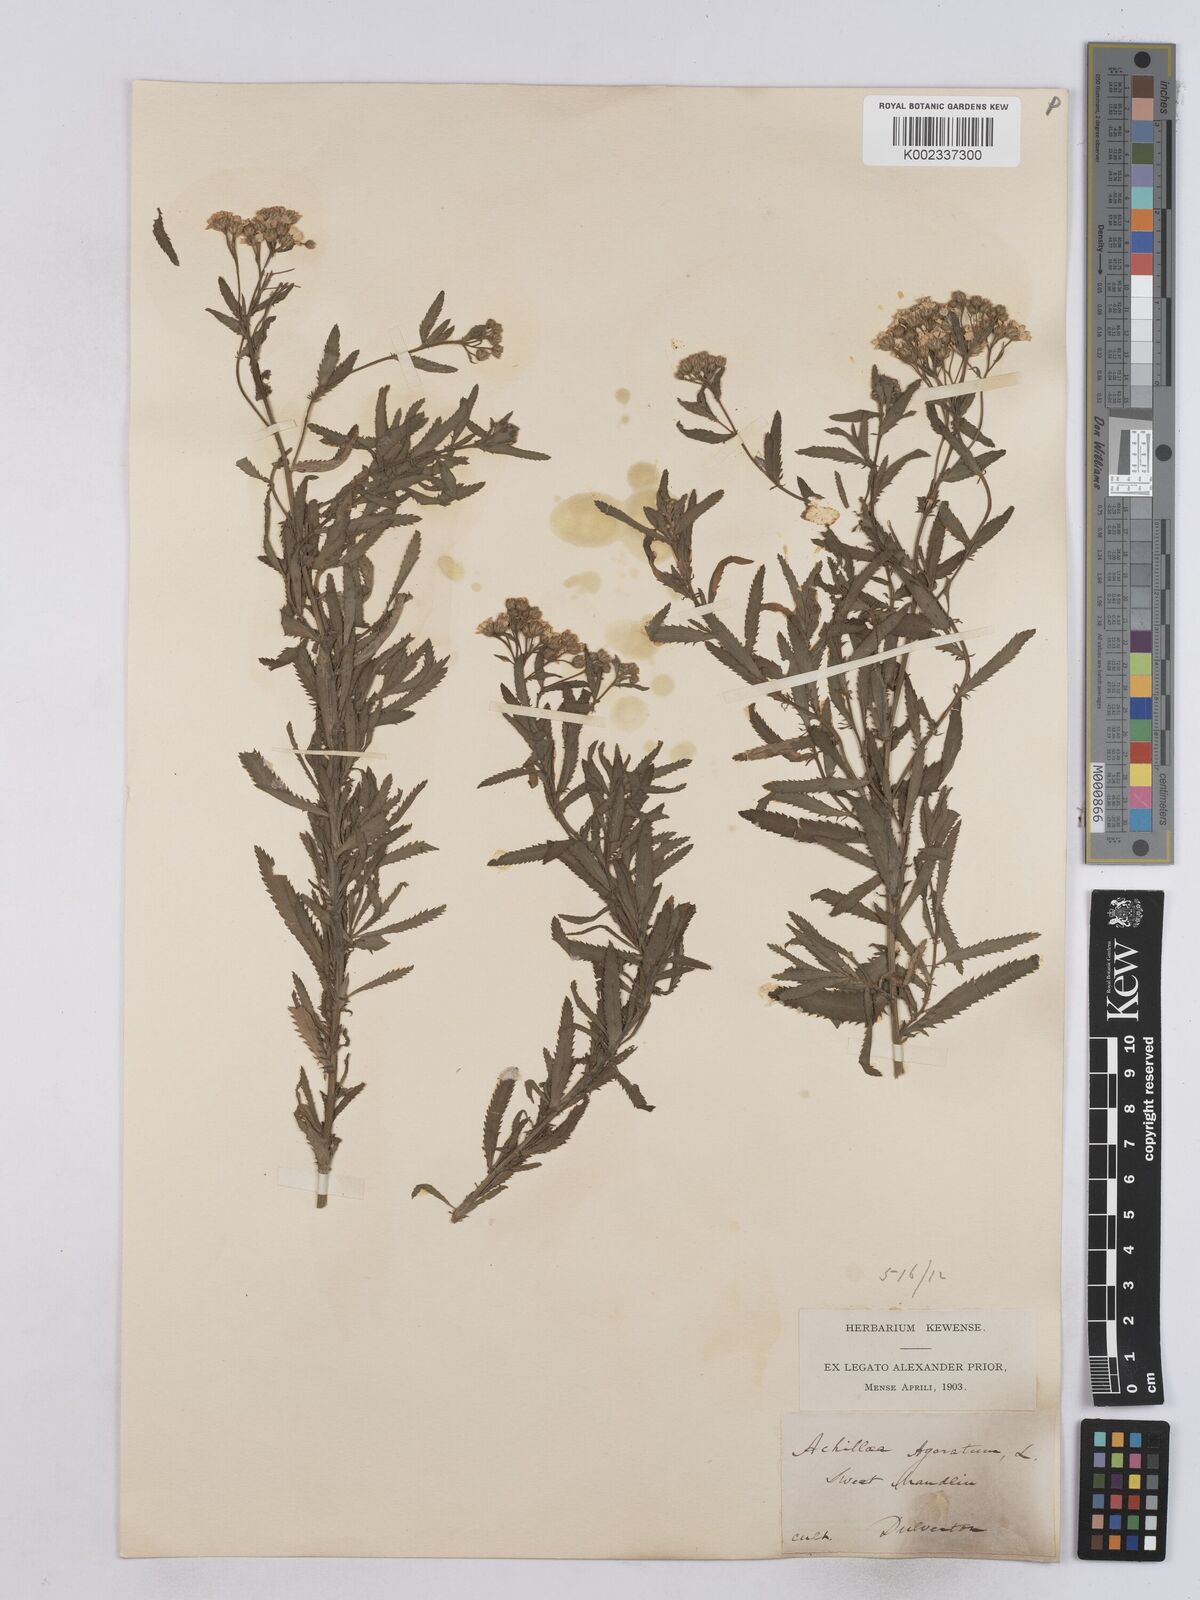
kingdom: Plantae
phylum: Tracheophyta
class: Magnoliopsida
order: Asterales
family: Asteraceae
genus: Achillea
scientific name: Achillea ageratum
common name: Sweet-nancy
